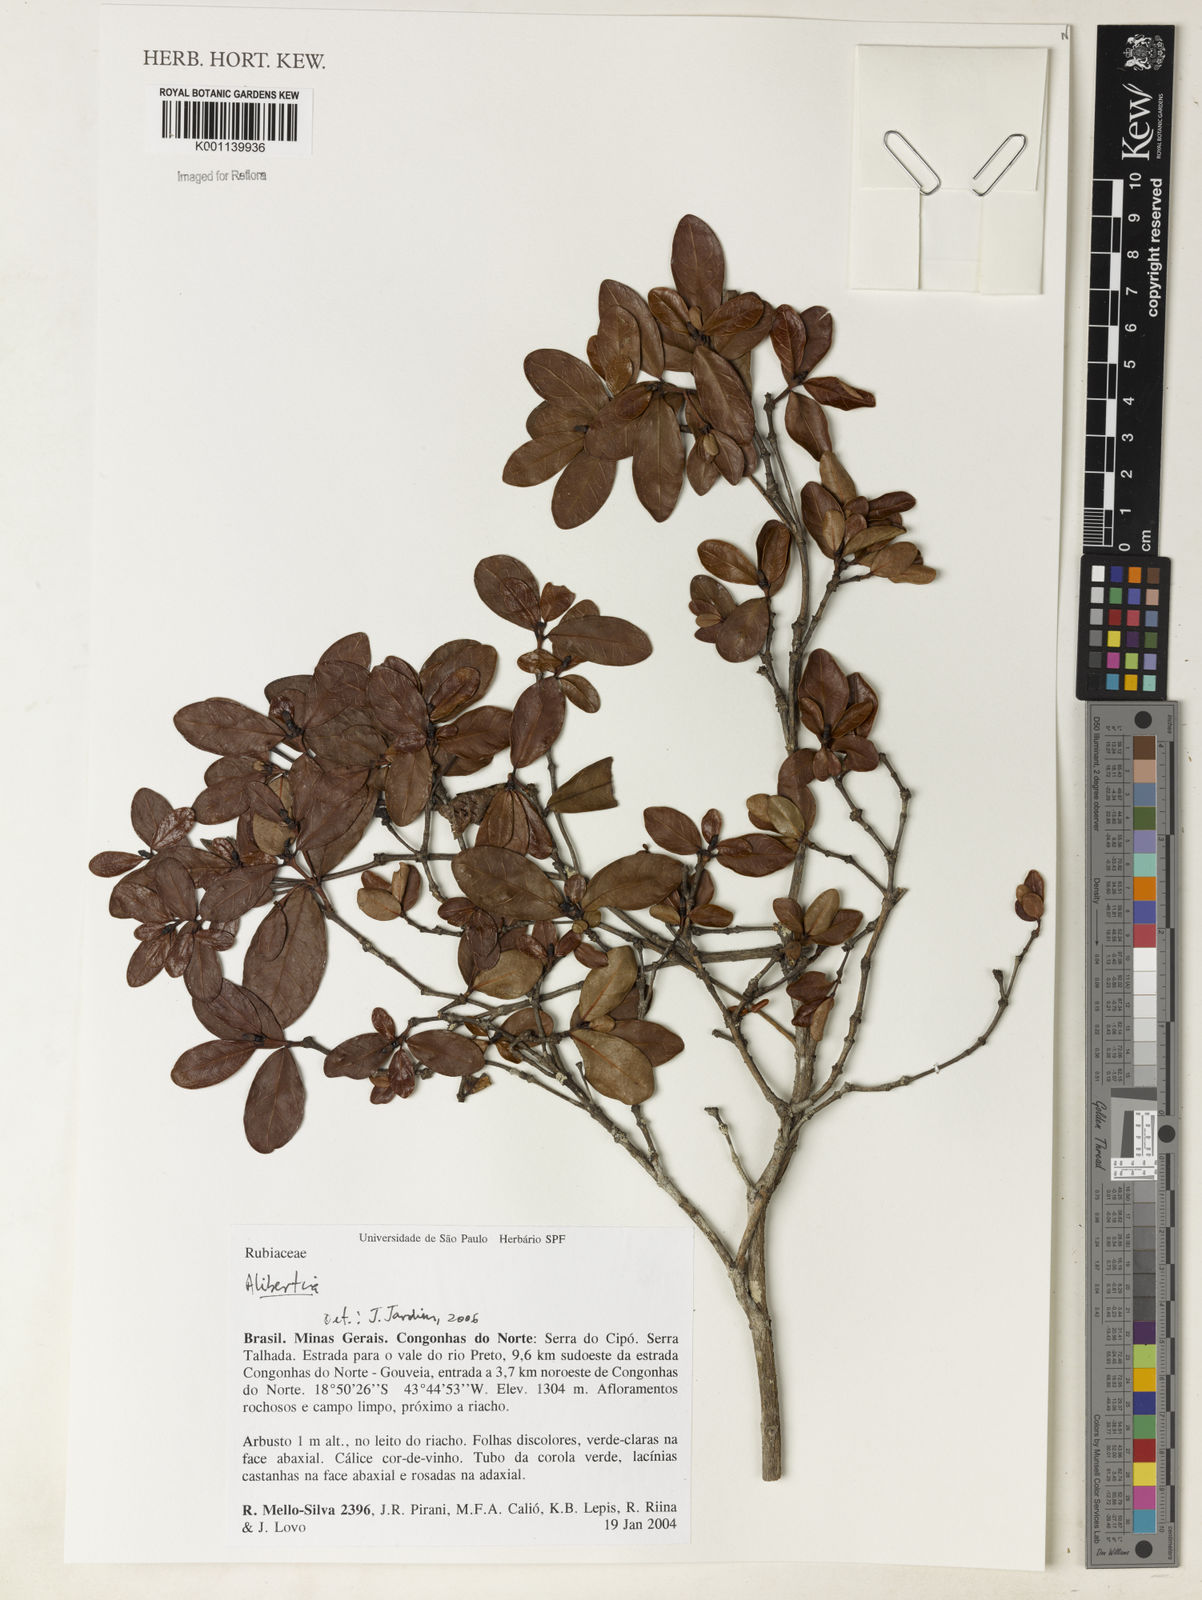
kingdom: Plantae
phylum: Tracheophyta
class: Magnoliopsida
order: Gentianales
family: Rubiaceae
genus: Alibertia
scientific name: Alibertia
